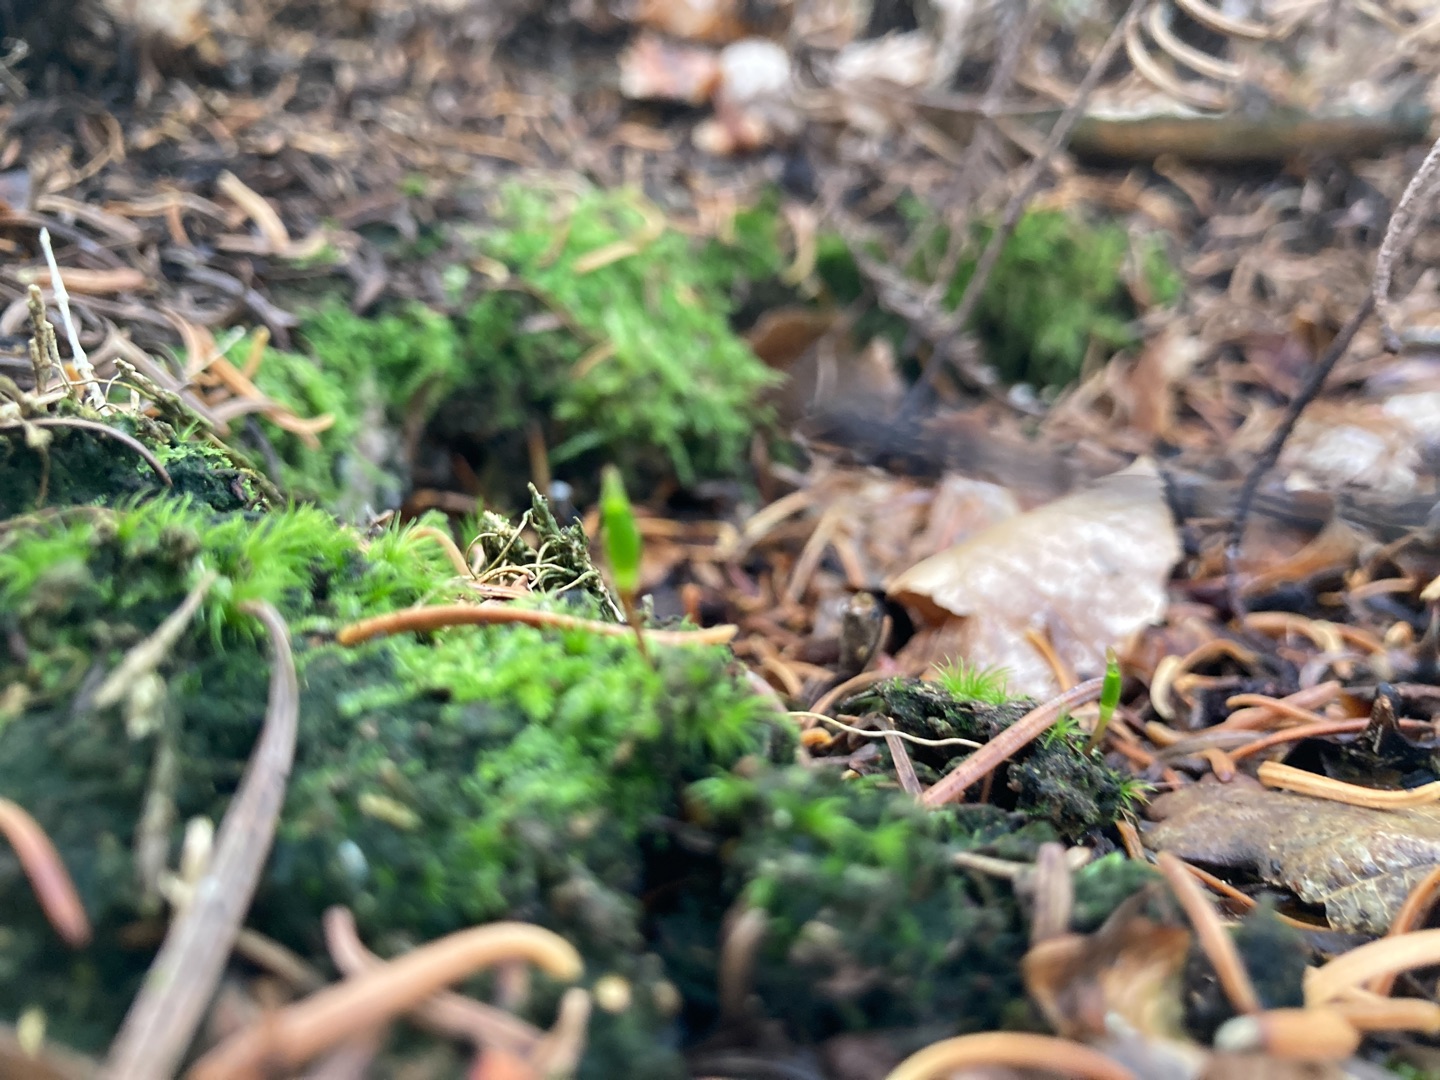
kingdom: Plantae
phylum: Bryophyta
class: Bryopsida
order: Buxbaumiales
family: Buxbaumiaceae
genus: Buxbaumia
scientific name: Buxbaumia viridis
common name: Grøn buxbaumia
